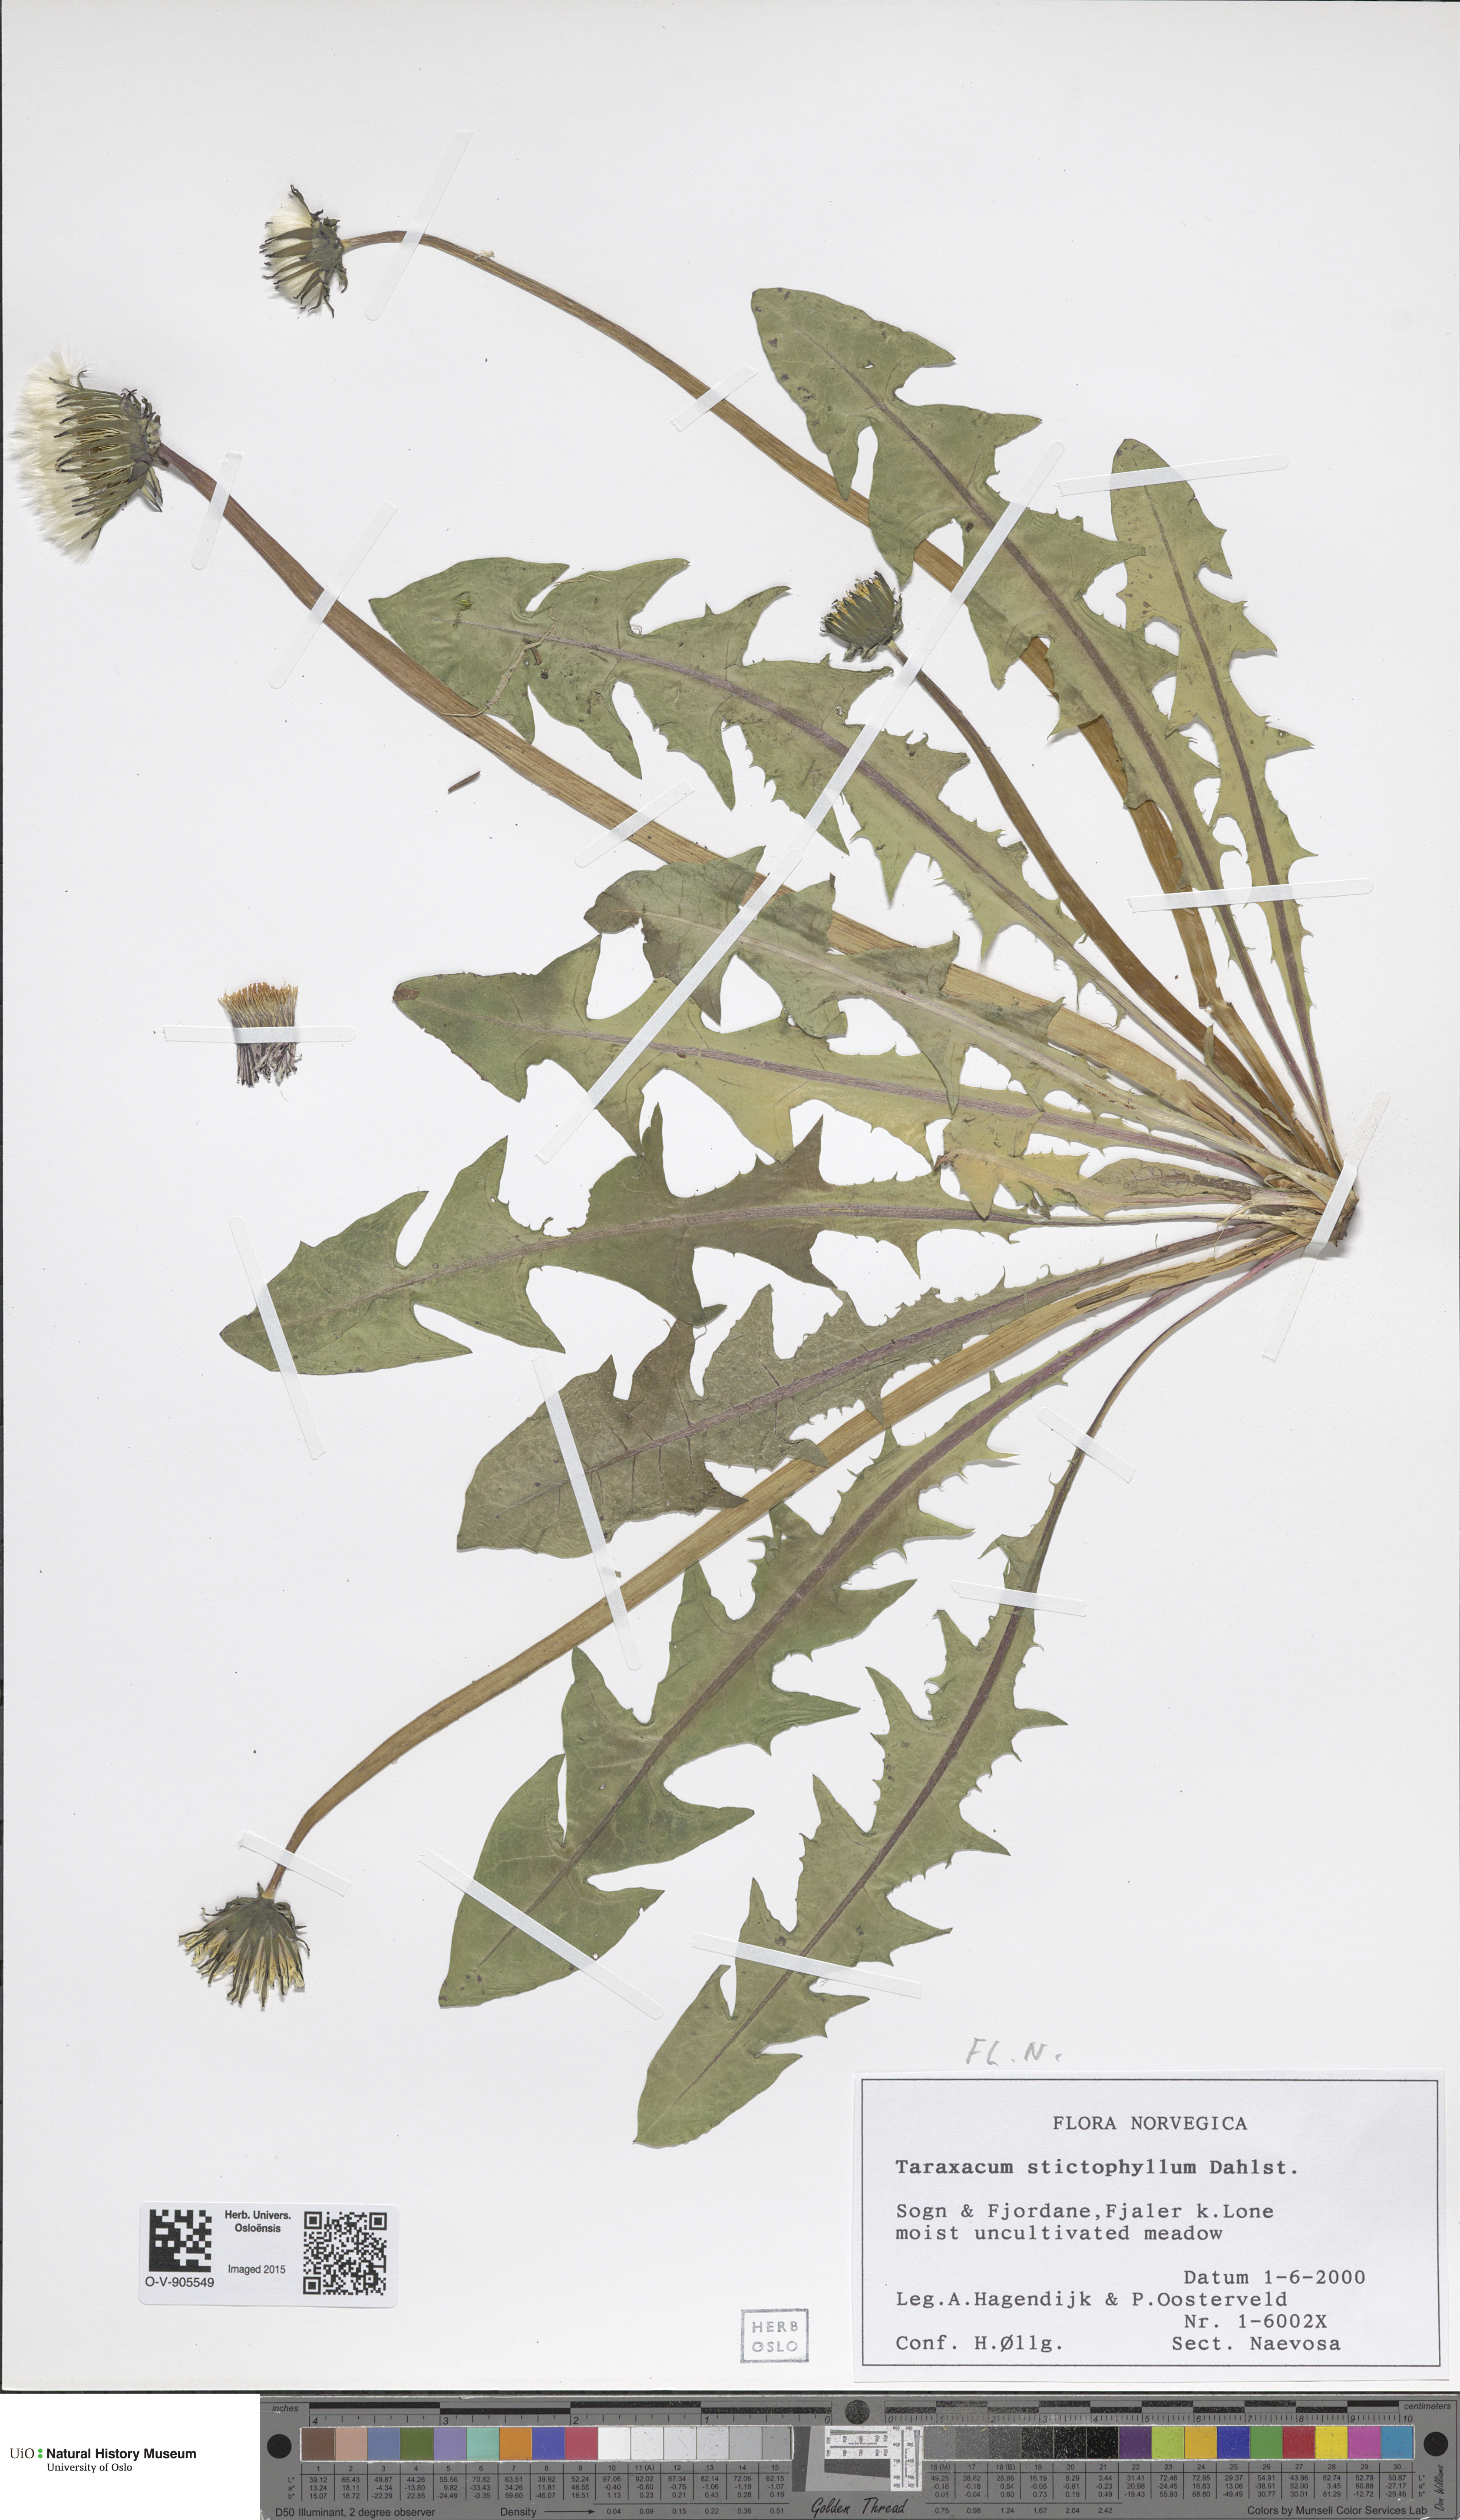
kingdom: Plantae
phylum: Tracheophyta
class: Magnoliopsida
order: Asterales
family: Asteraceae
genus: Taraxacum
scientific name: Taraxacum stictophyllum
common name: Stiff-leaved dandelion
